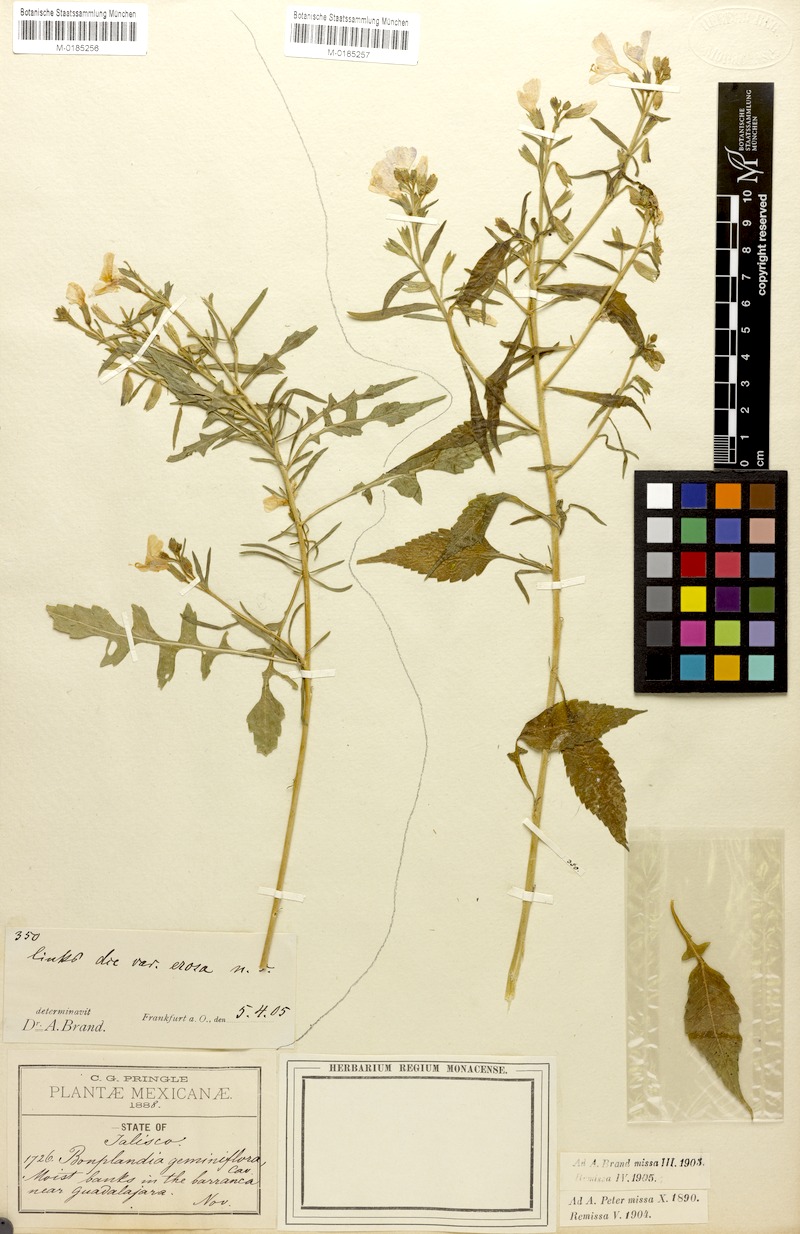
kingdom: Plantae
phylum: Tracheophyta
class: Magnoliopsida
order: Ericales
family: Polemoniaceae
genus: Bonplandia
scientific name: Bonplandia geminiflora
